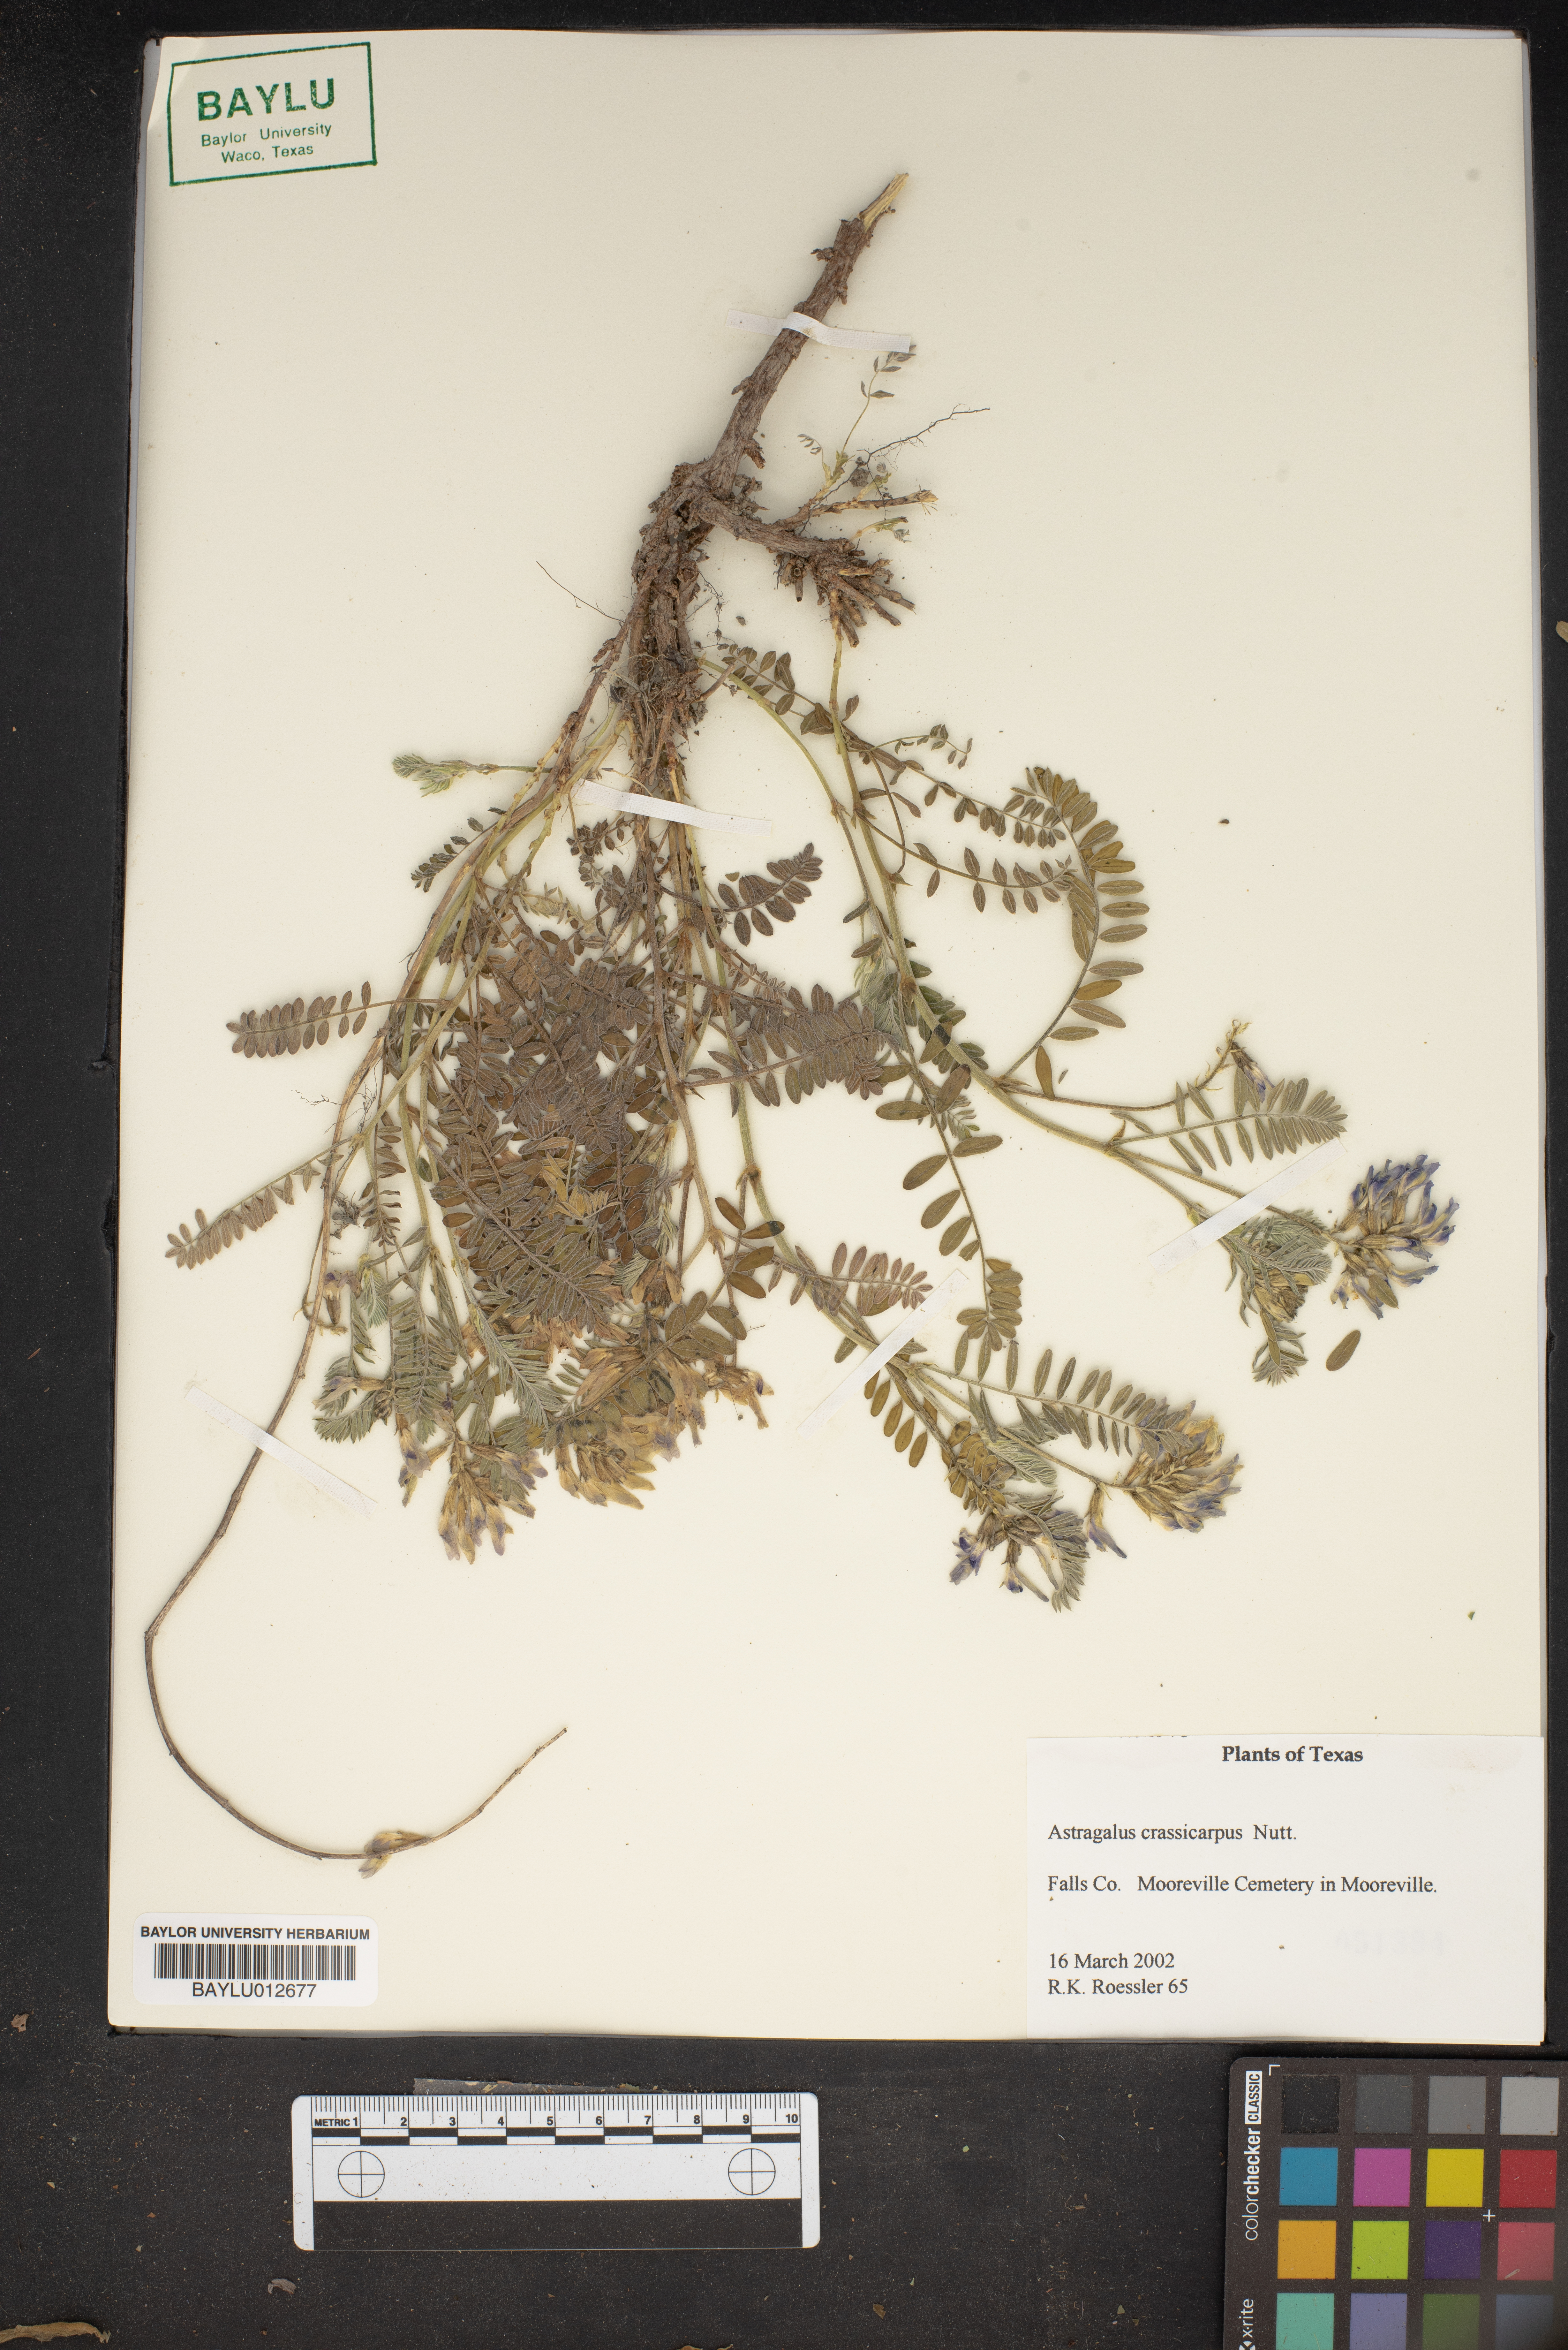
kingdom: Plantae
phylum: Tracheophyta
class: Magnoliopsida
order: Fabales
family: Fabaceae
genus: Astragalus
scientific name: Astragalus crassicarpus
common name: Ground-plum milk-vetch
